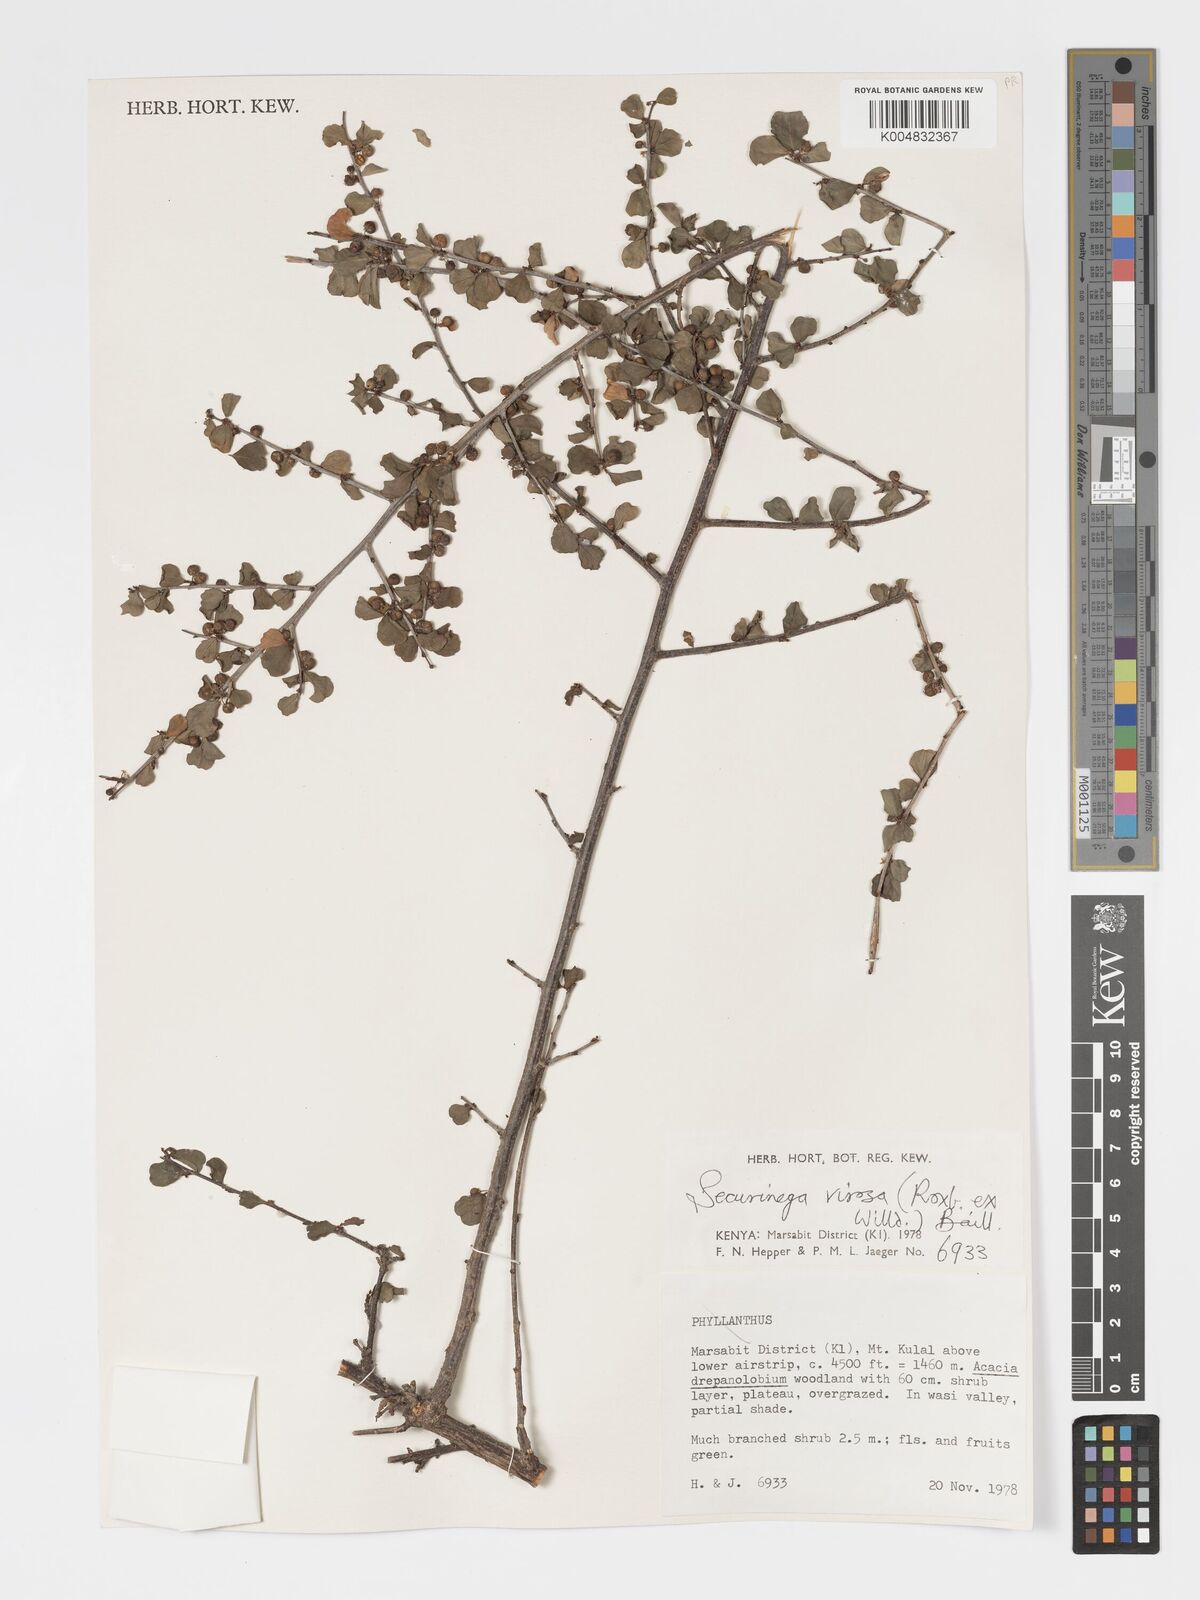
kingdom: Plantae
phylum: Tracheophyta
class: Magnoliopsida
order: Malpighiales
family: Phyllanthaceae
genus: Flueggea
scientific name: Flueggea virosa
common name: Common bushweed
